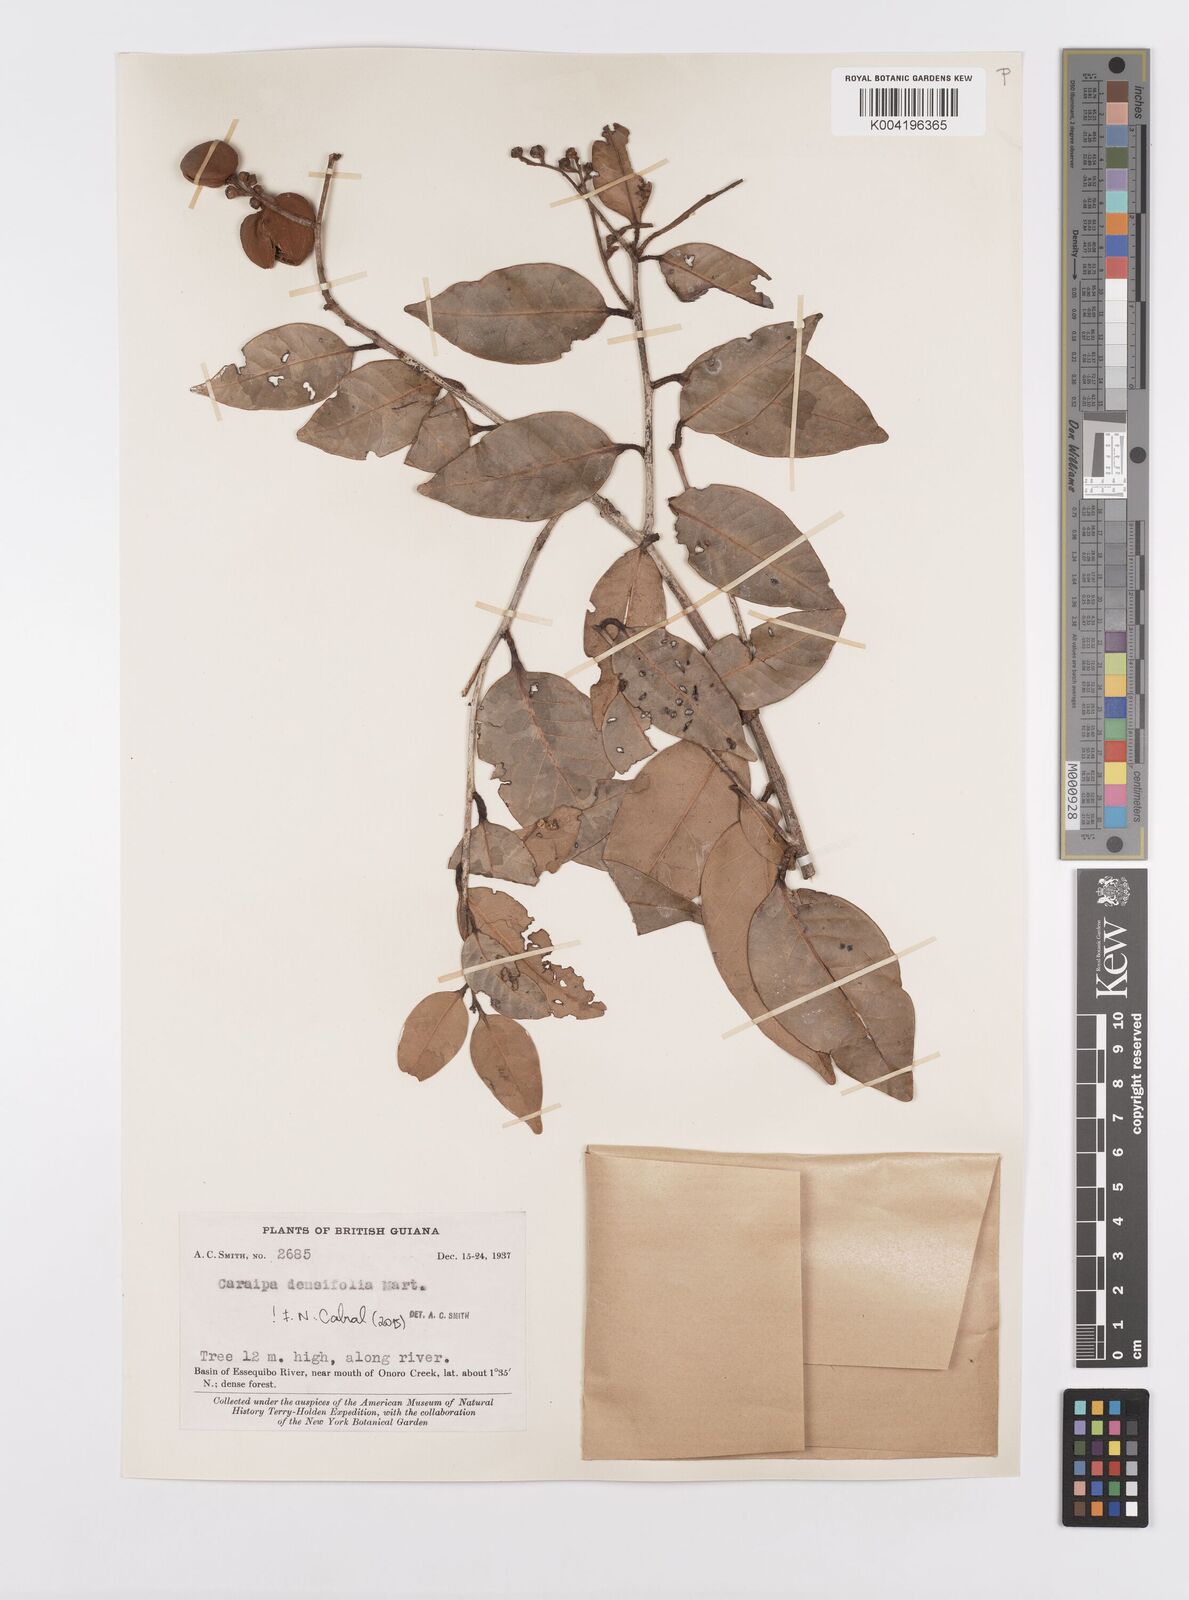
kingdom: Plantae
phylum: Tracheophyta
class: Magnoliopsida
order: Malpighiales
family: Calophyllaceae
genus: Caraipa
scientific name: Caraipa densifolia
